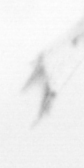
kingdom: Animalia
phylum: Arthropoda
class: Copepoda
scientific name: Copepoda
